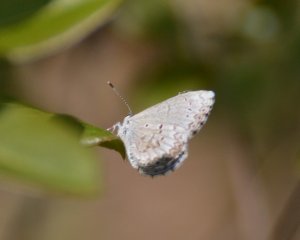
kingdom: Animalia
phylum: Arthropoda
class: Insecta
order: Lepidoptera
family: Lycaenidae
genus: Celastrina
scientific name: Celastrina lucia
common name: Northern Spring Azure
